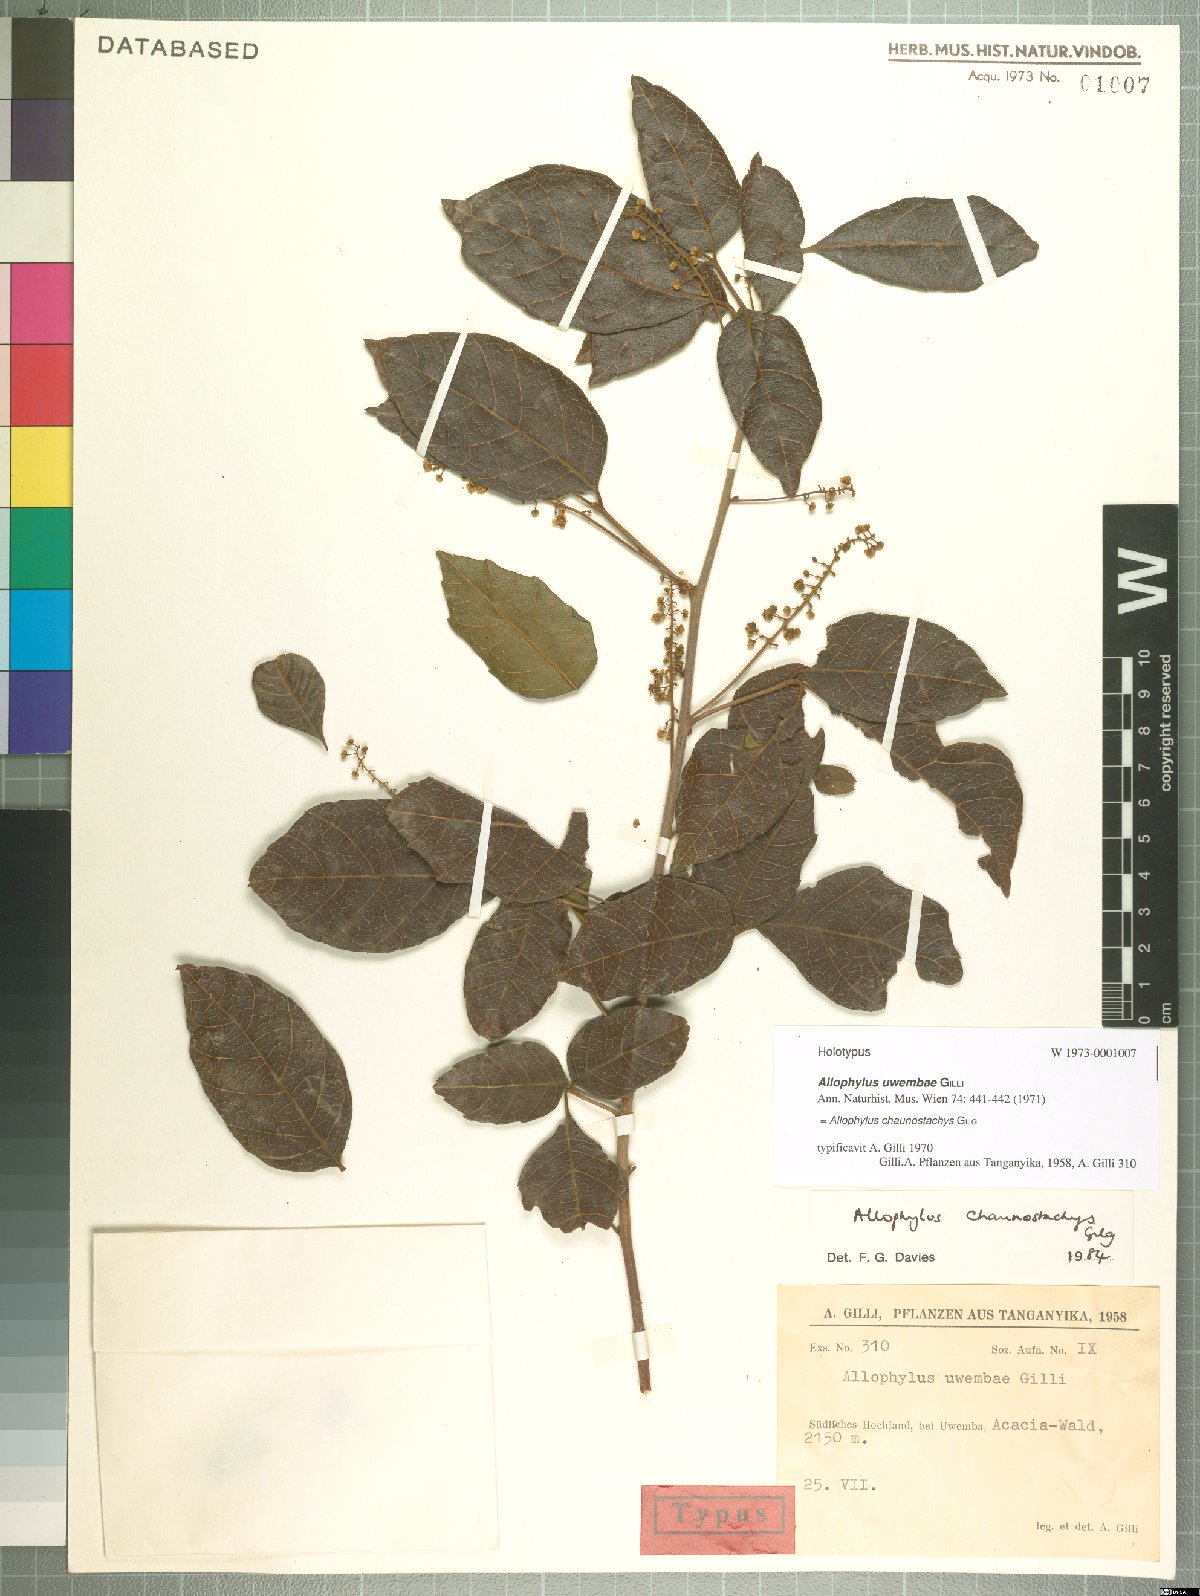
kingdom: Plantae
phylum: Tracheophyta
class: Magnoliopsida
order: Sapindales
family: Sapindaceae
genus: Allophylus
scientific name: Allophylus chaunostachys
